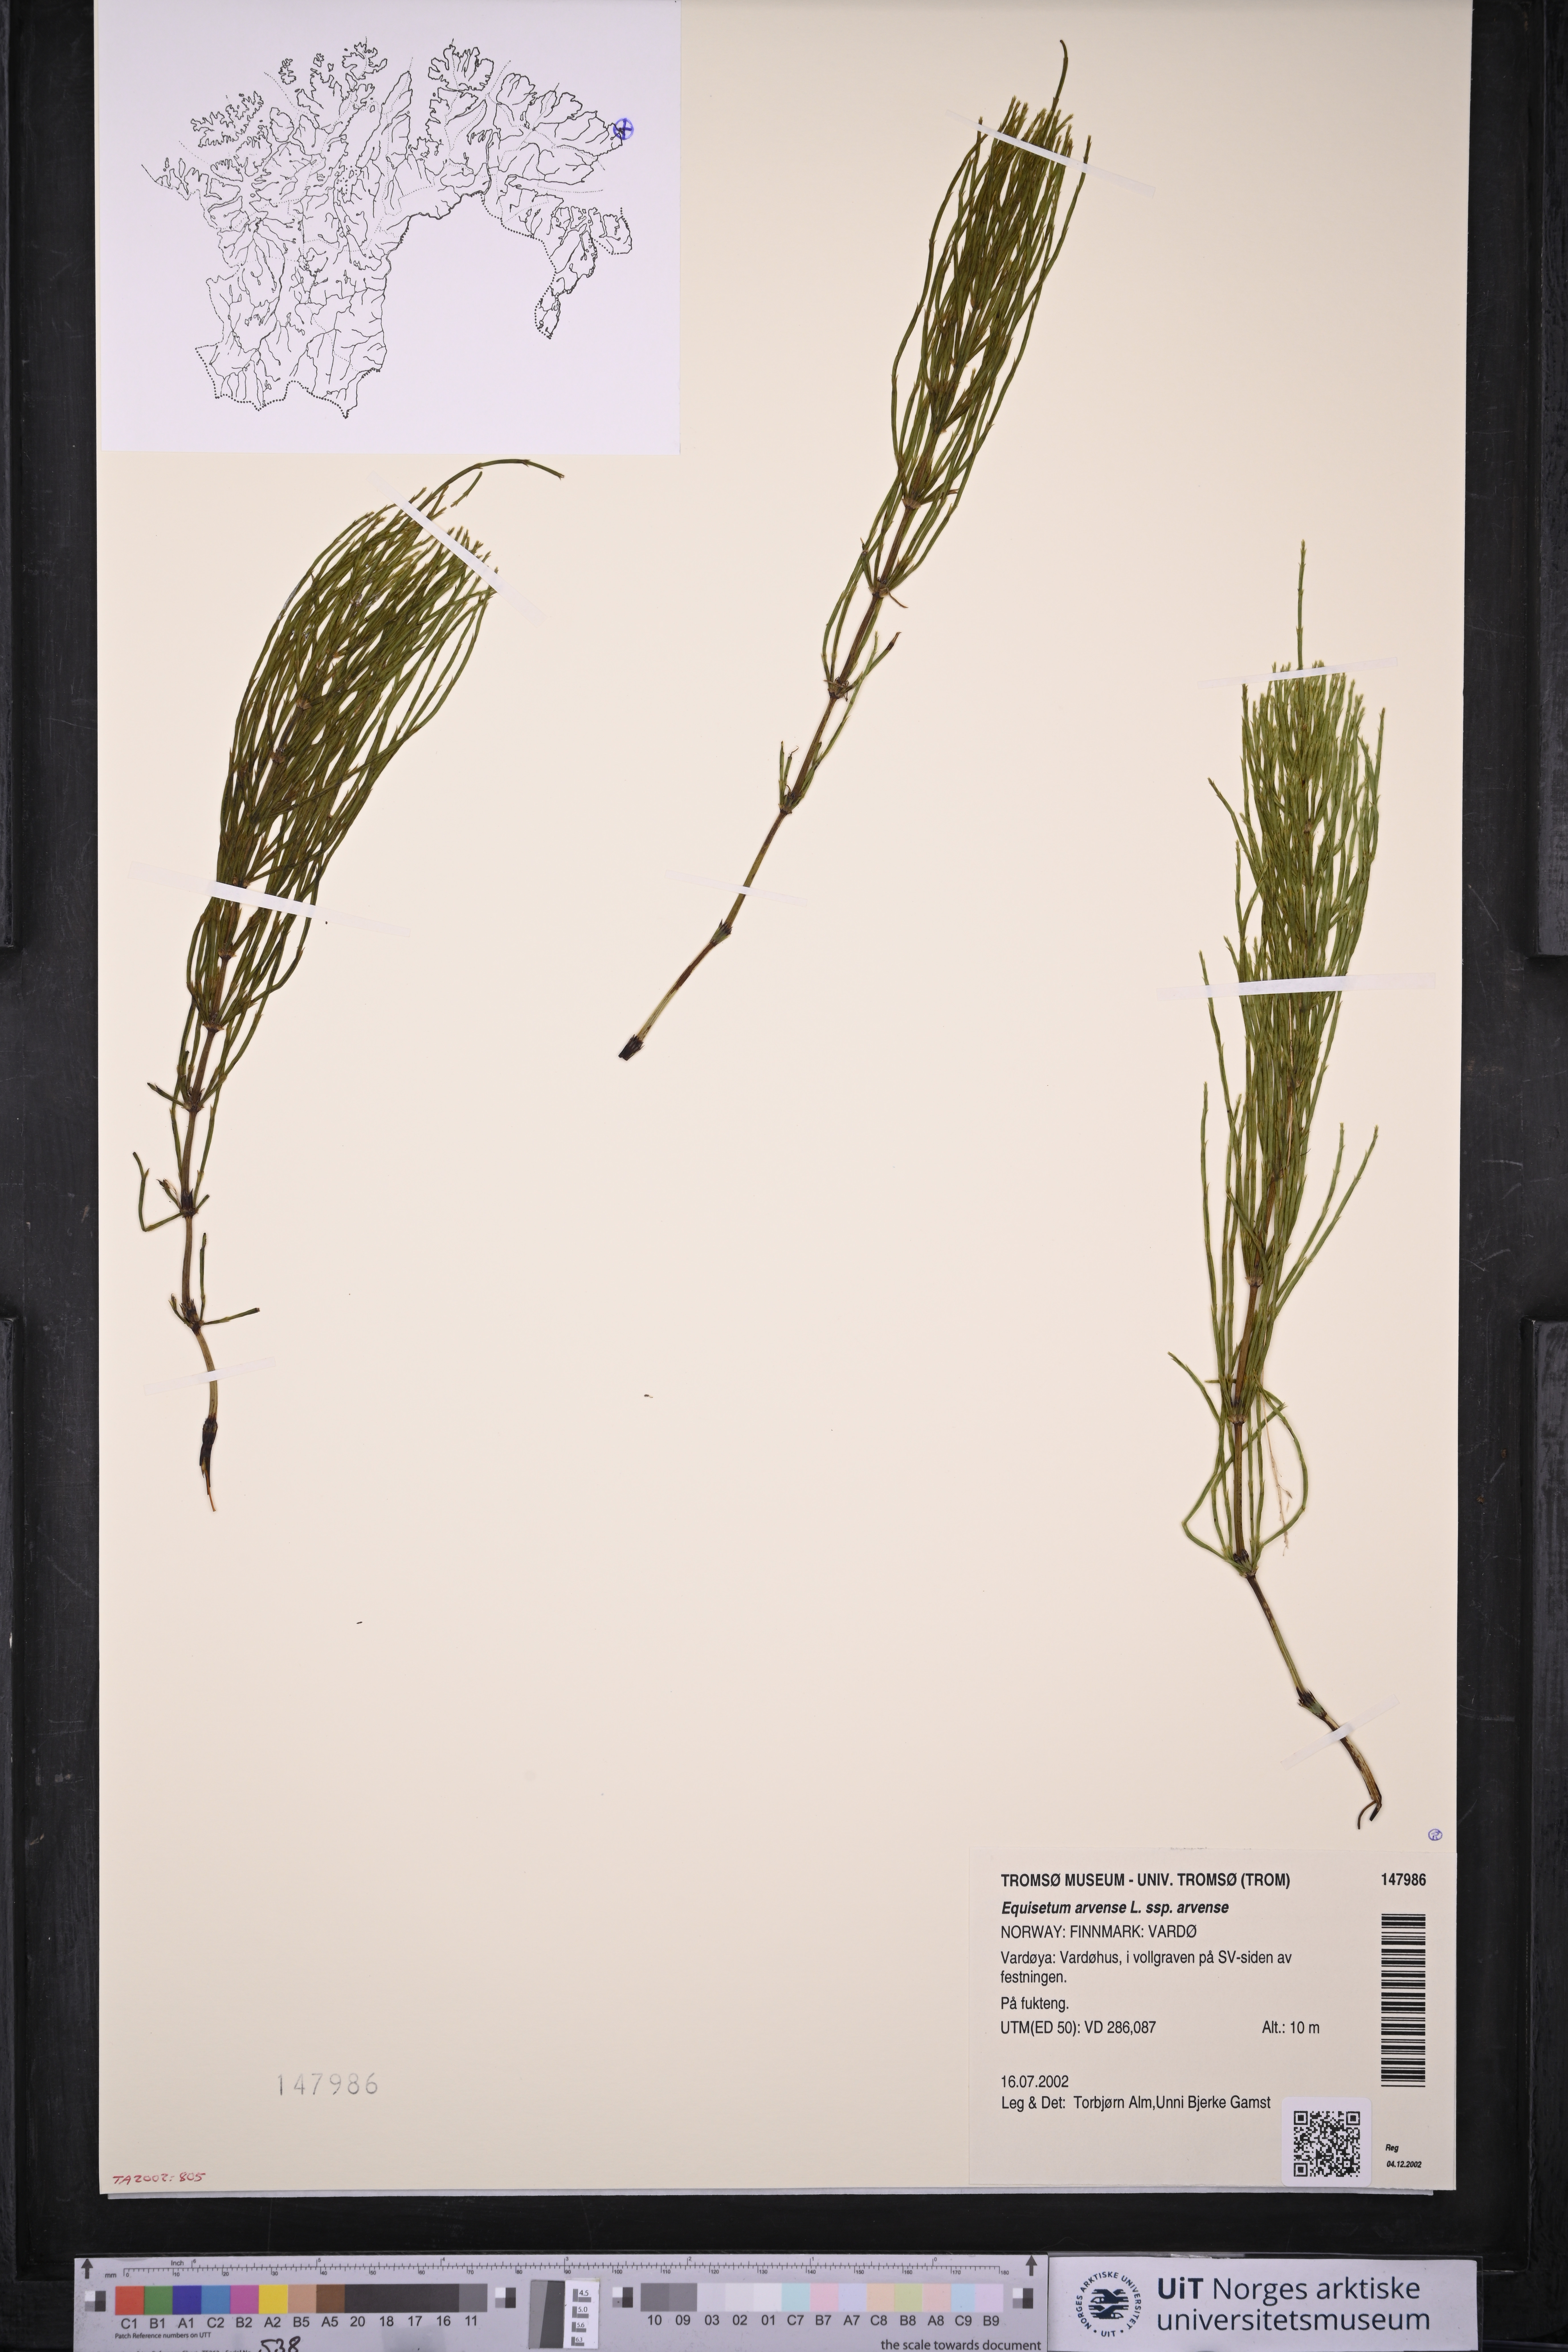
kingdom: Plantae
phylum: Tracheophyta
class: Polypodiopsida
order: Equisetales
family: Equisetaceae
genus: Equisetum
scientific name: Equisetum arvense
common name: Field horsetail
